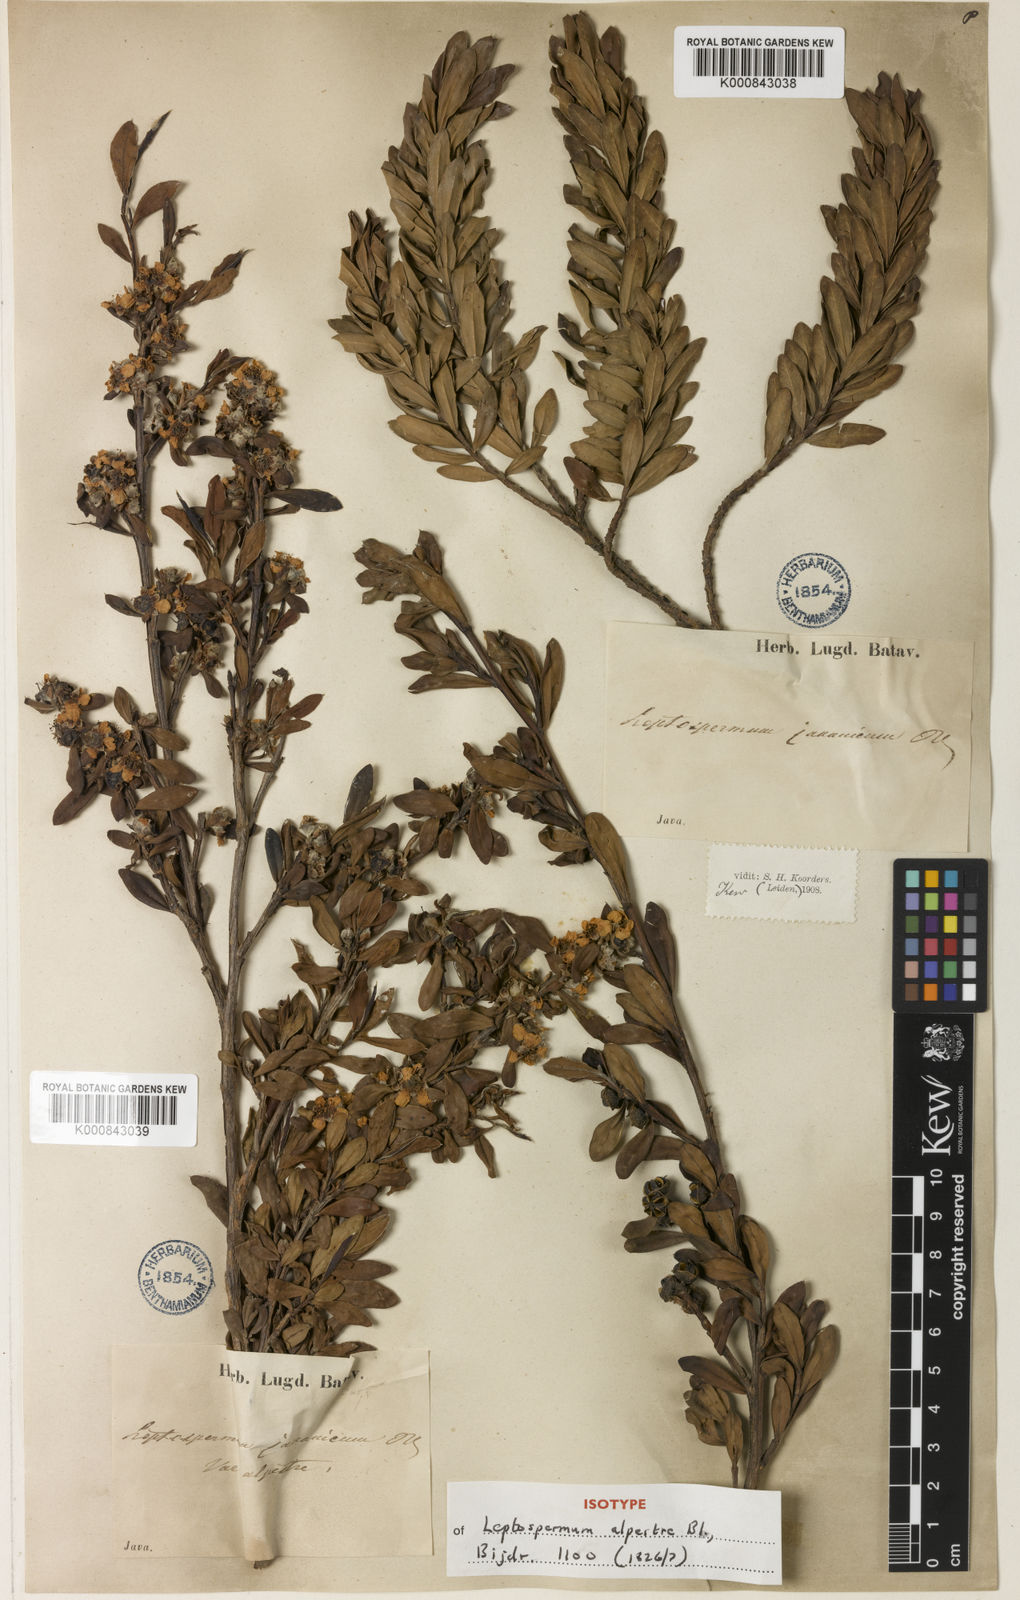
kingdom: Plantae
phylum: Tracheophyta
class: Magnoliopsida
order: Myrtales
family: Myrtaceae
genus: Leptospermum
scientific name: Leptospermum javanicum
